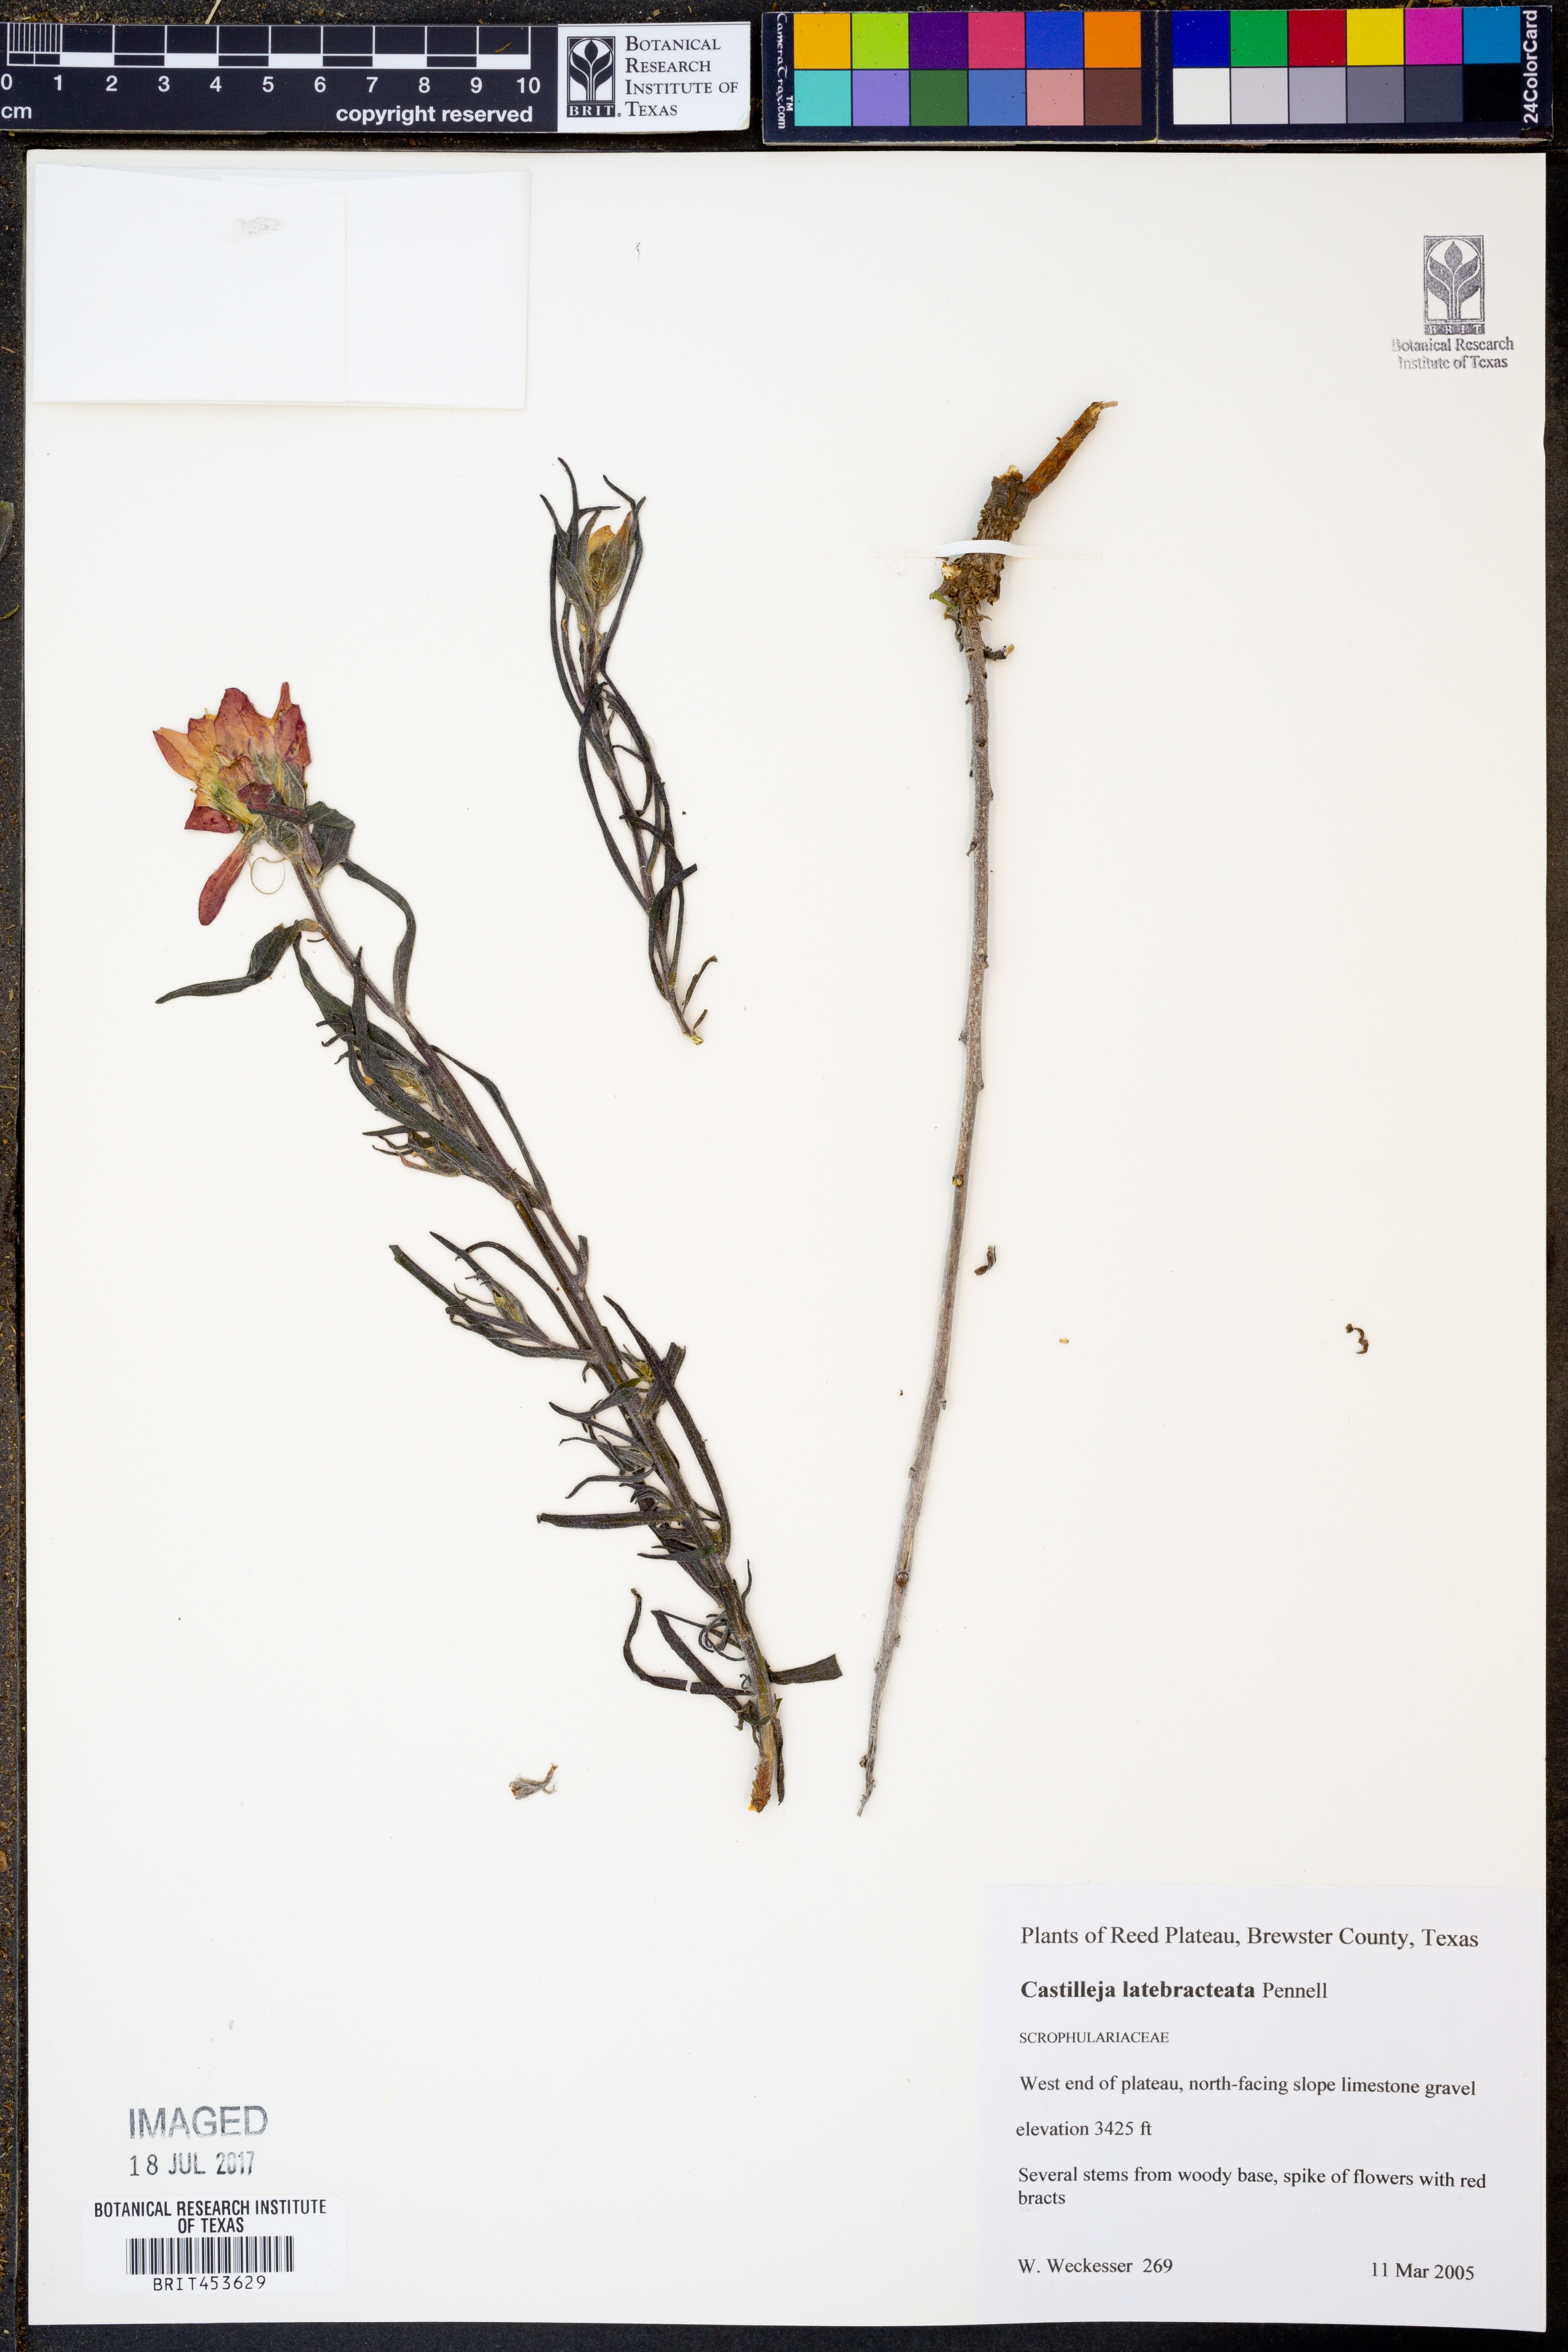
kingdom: Plantae
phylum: Tracheophyta
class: Magnoliopsida
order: Lamiales
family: Orobanchaceae
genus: Castilleja
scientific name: Castilleja rigida
